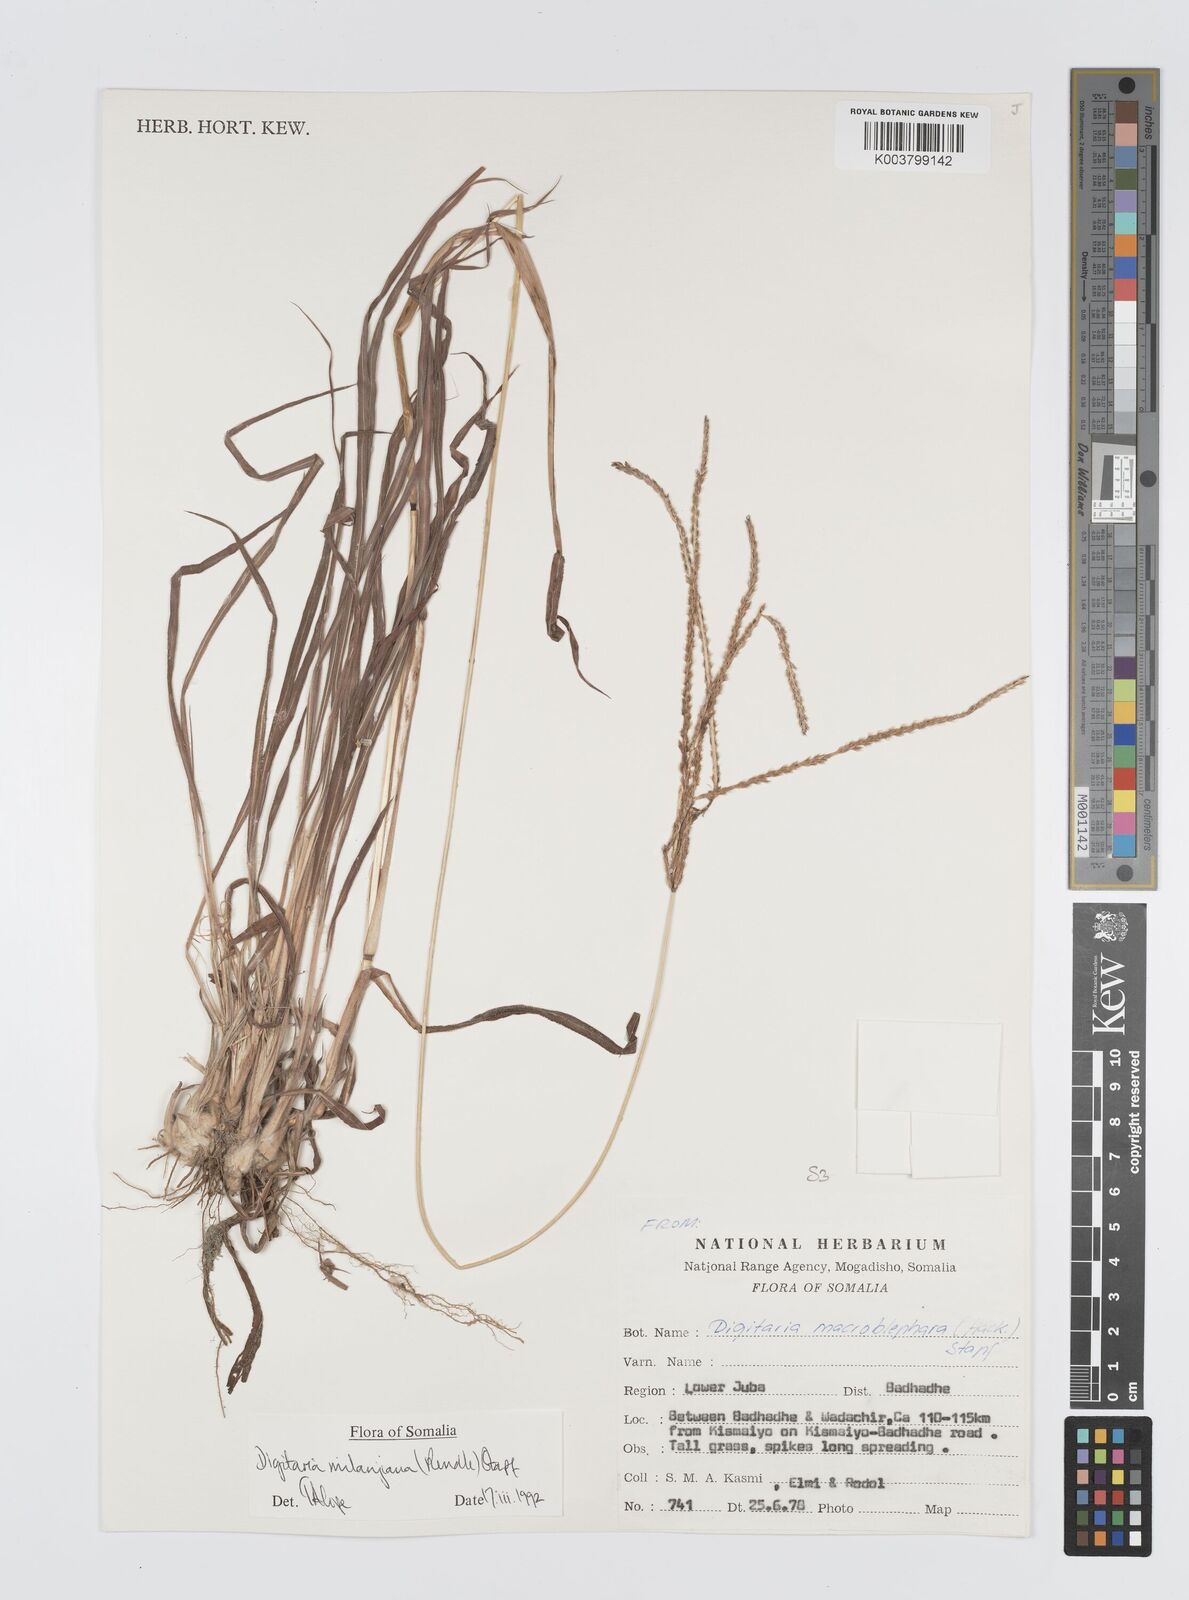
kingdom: Plantae
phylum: Tracheophyta
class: Liliopsida
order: Poales
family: Poaceae
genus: Digitaria
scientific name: Digitaria milanjiana
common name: Madagascar crabgrass
